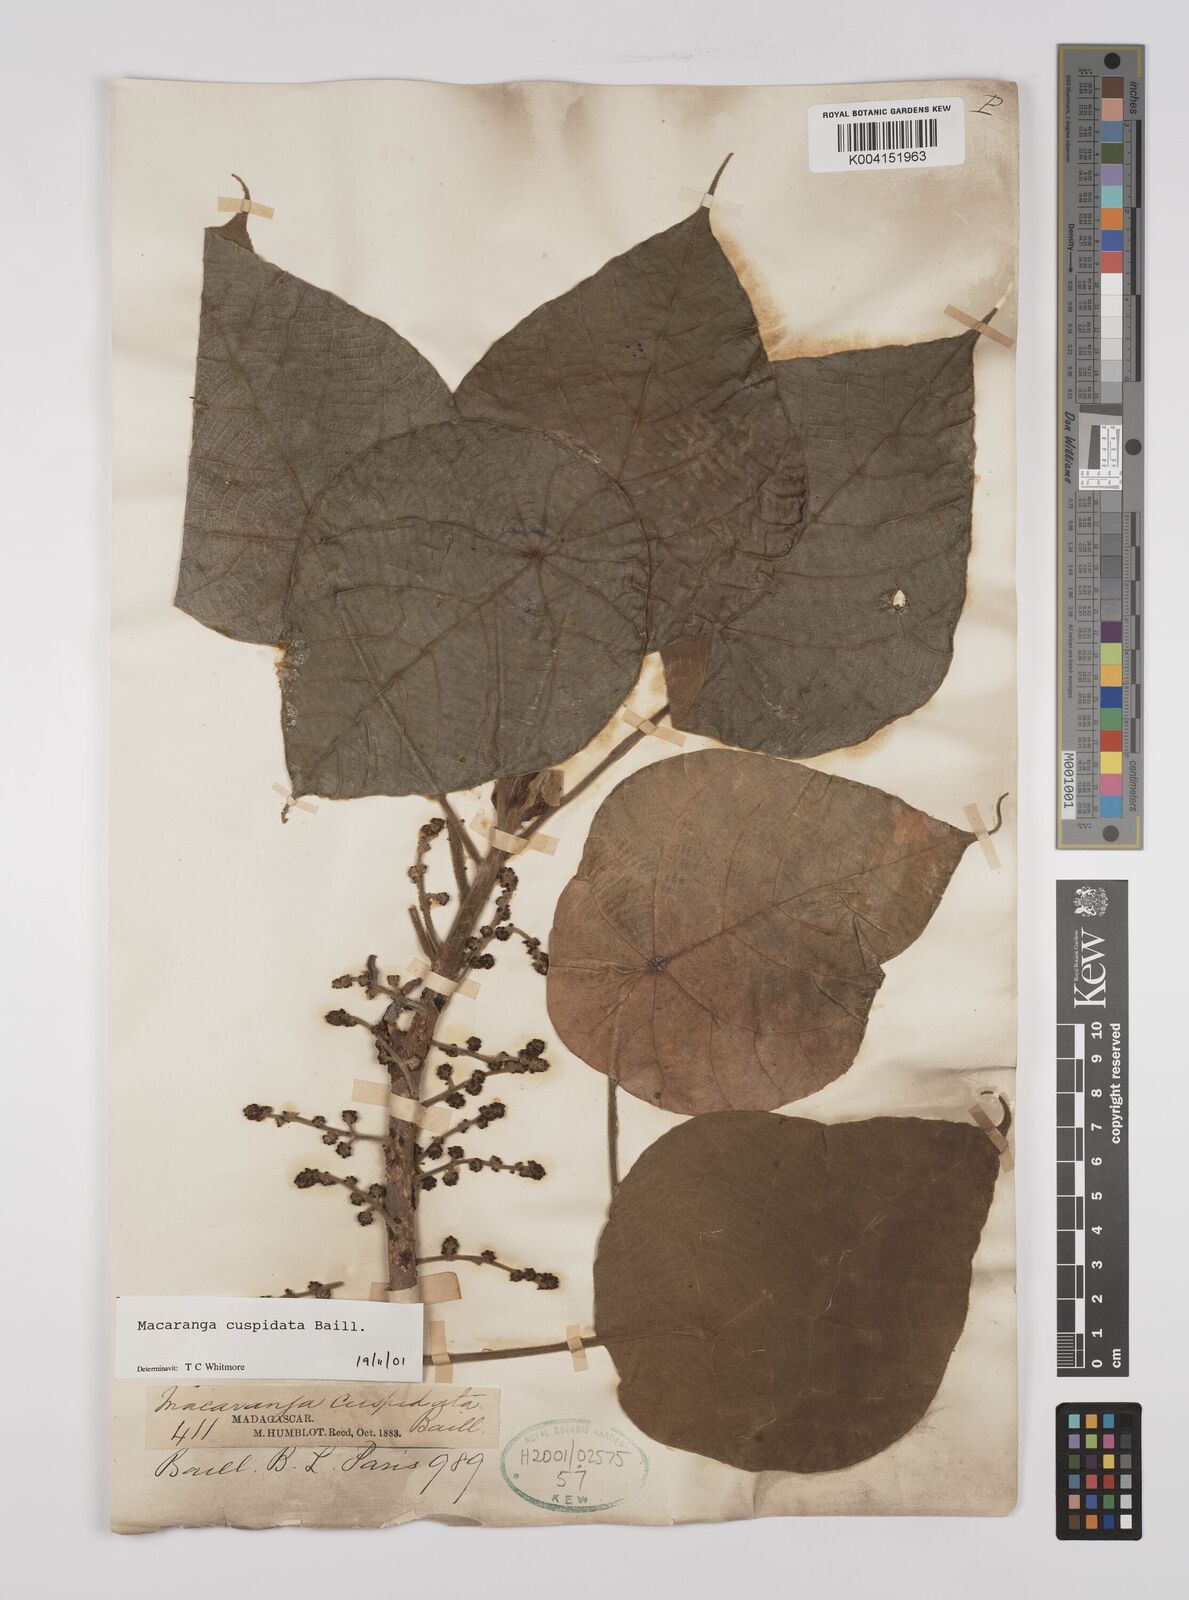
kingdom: Plantae
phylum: Tracheophyta
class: Magnoliopsida
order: Malpighiales
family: Euphorbiaceae
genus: Macaranga
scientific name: Macaranga cuspidata
